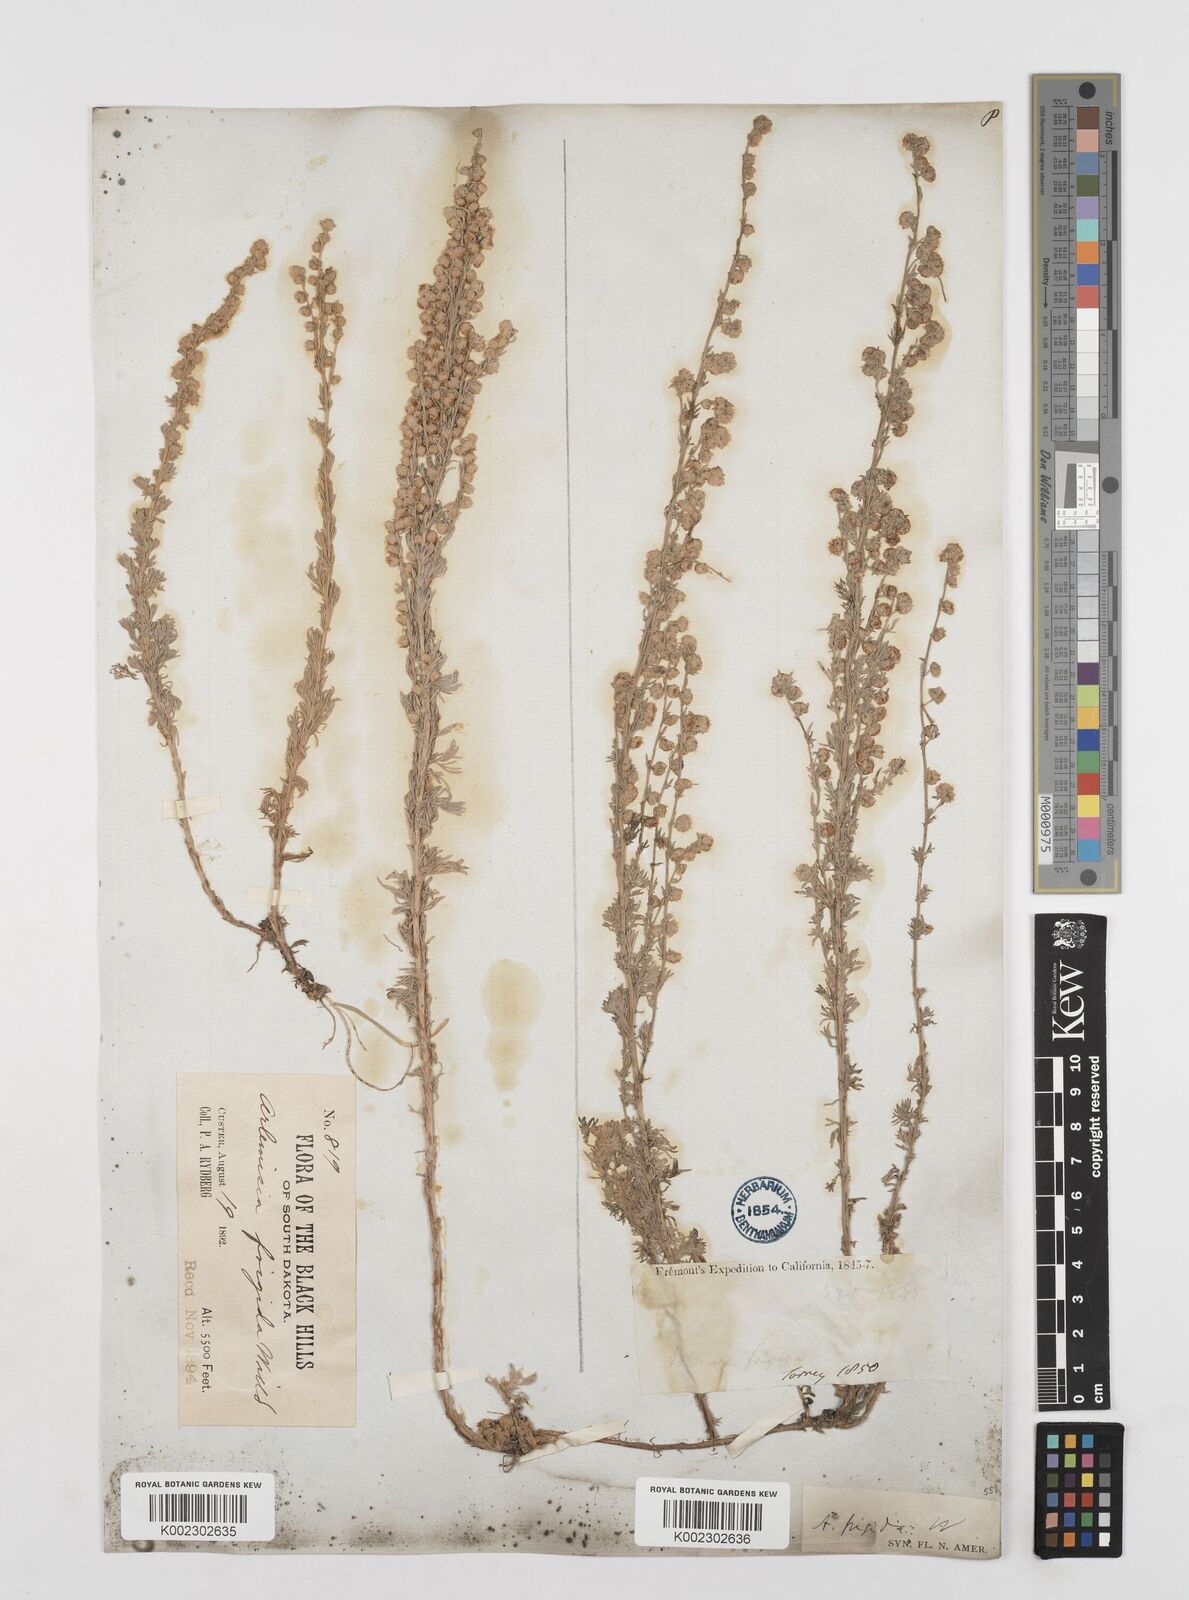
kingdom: Plantae
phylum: Tracheophyta
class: Magnoliopsida
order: Asterales
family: Asteraceae
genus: Artemisia
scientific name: Artemisia frigida
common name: Prairie sagewort
